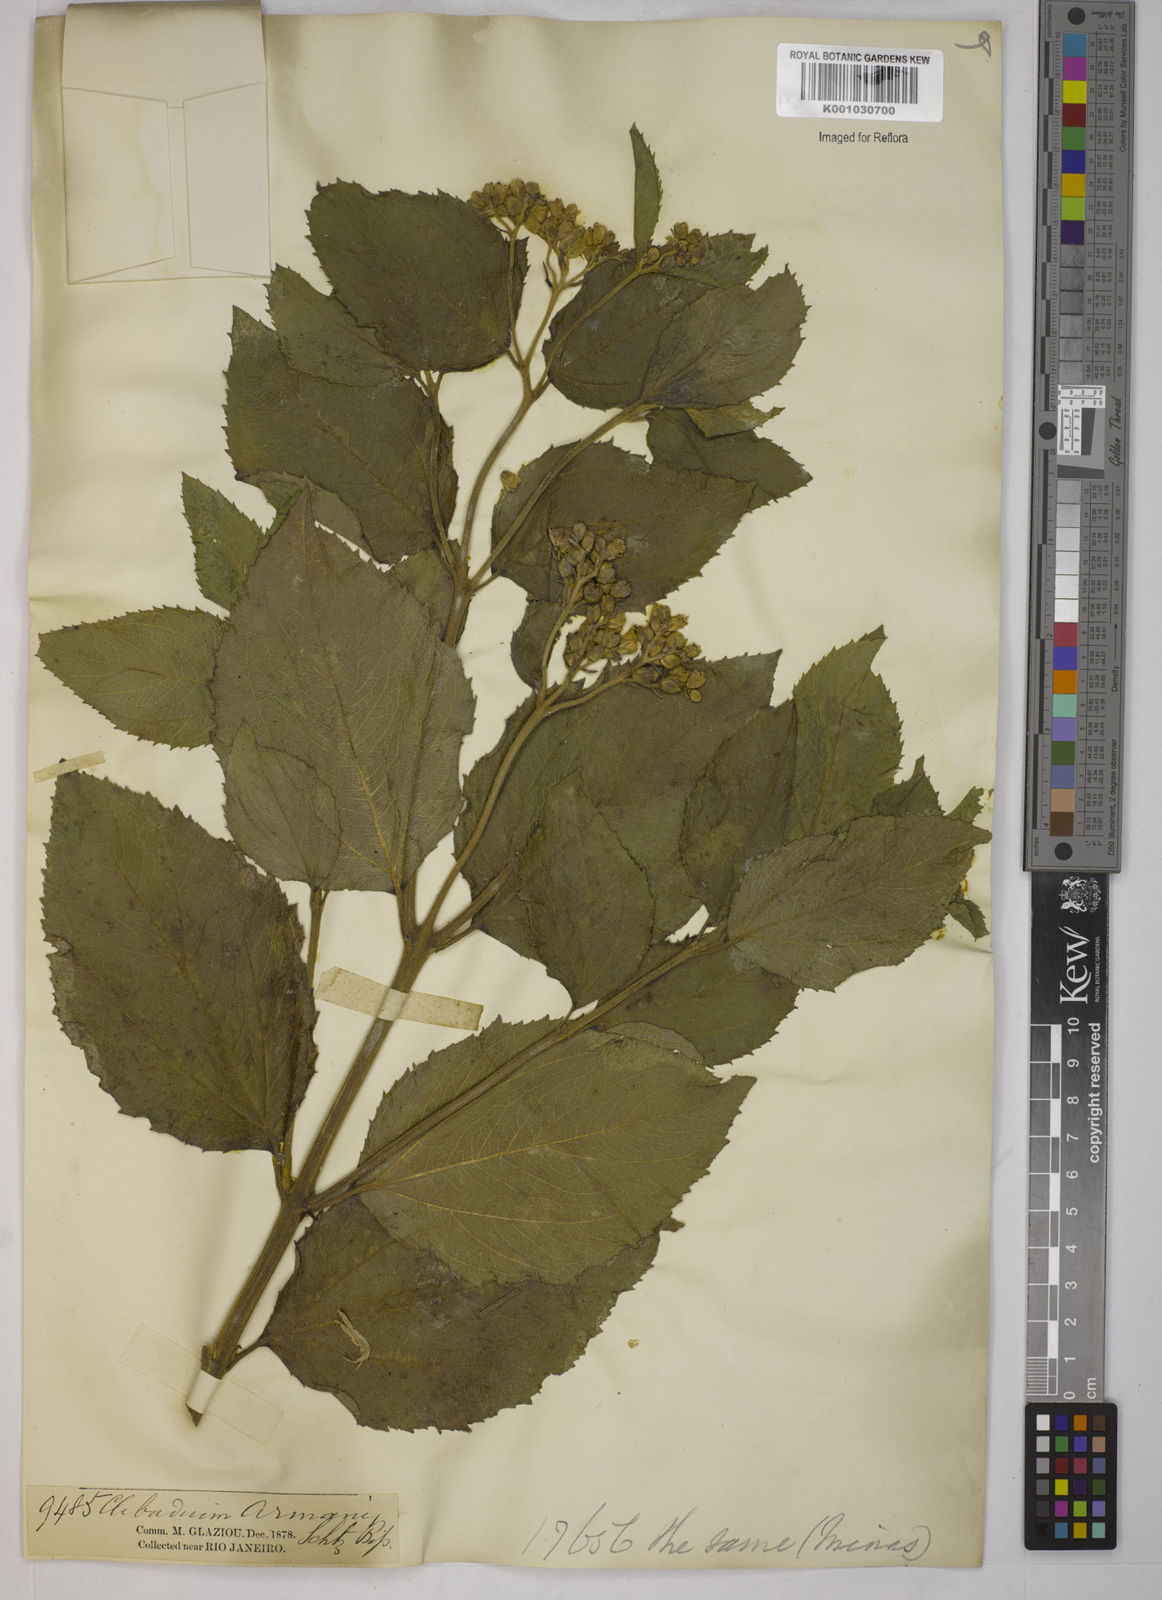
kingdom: Plantae
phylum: Tracheophyta
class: Magnoliopsida
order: Asterales
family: Asteraceae
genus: Clibadium
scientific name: Clibadium armanii
